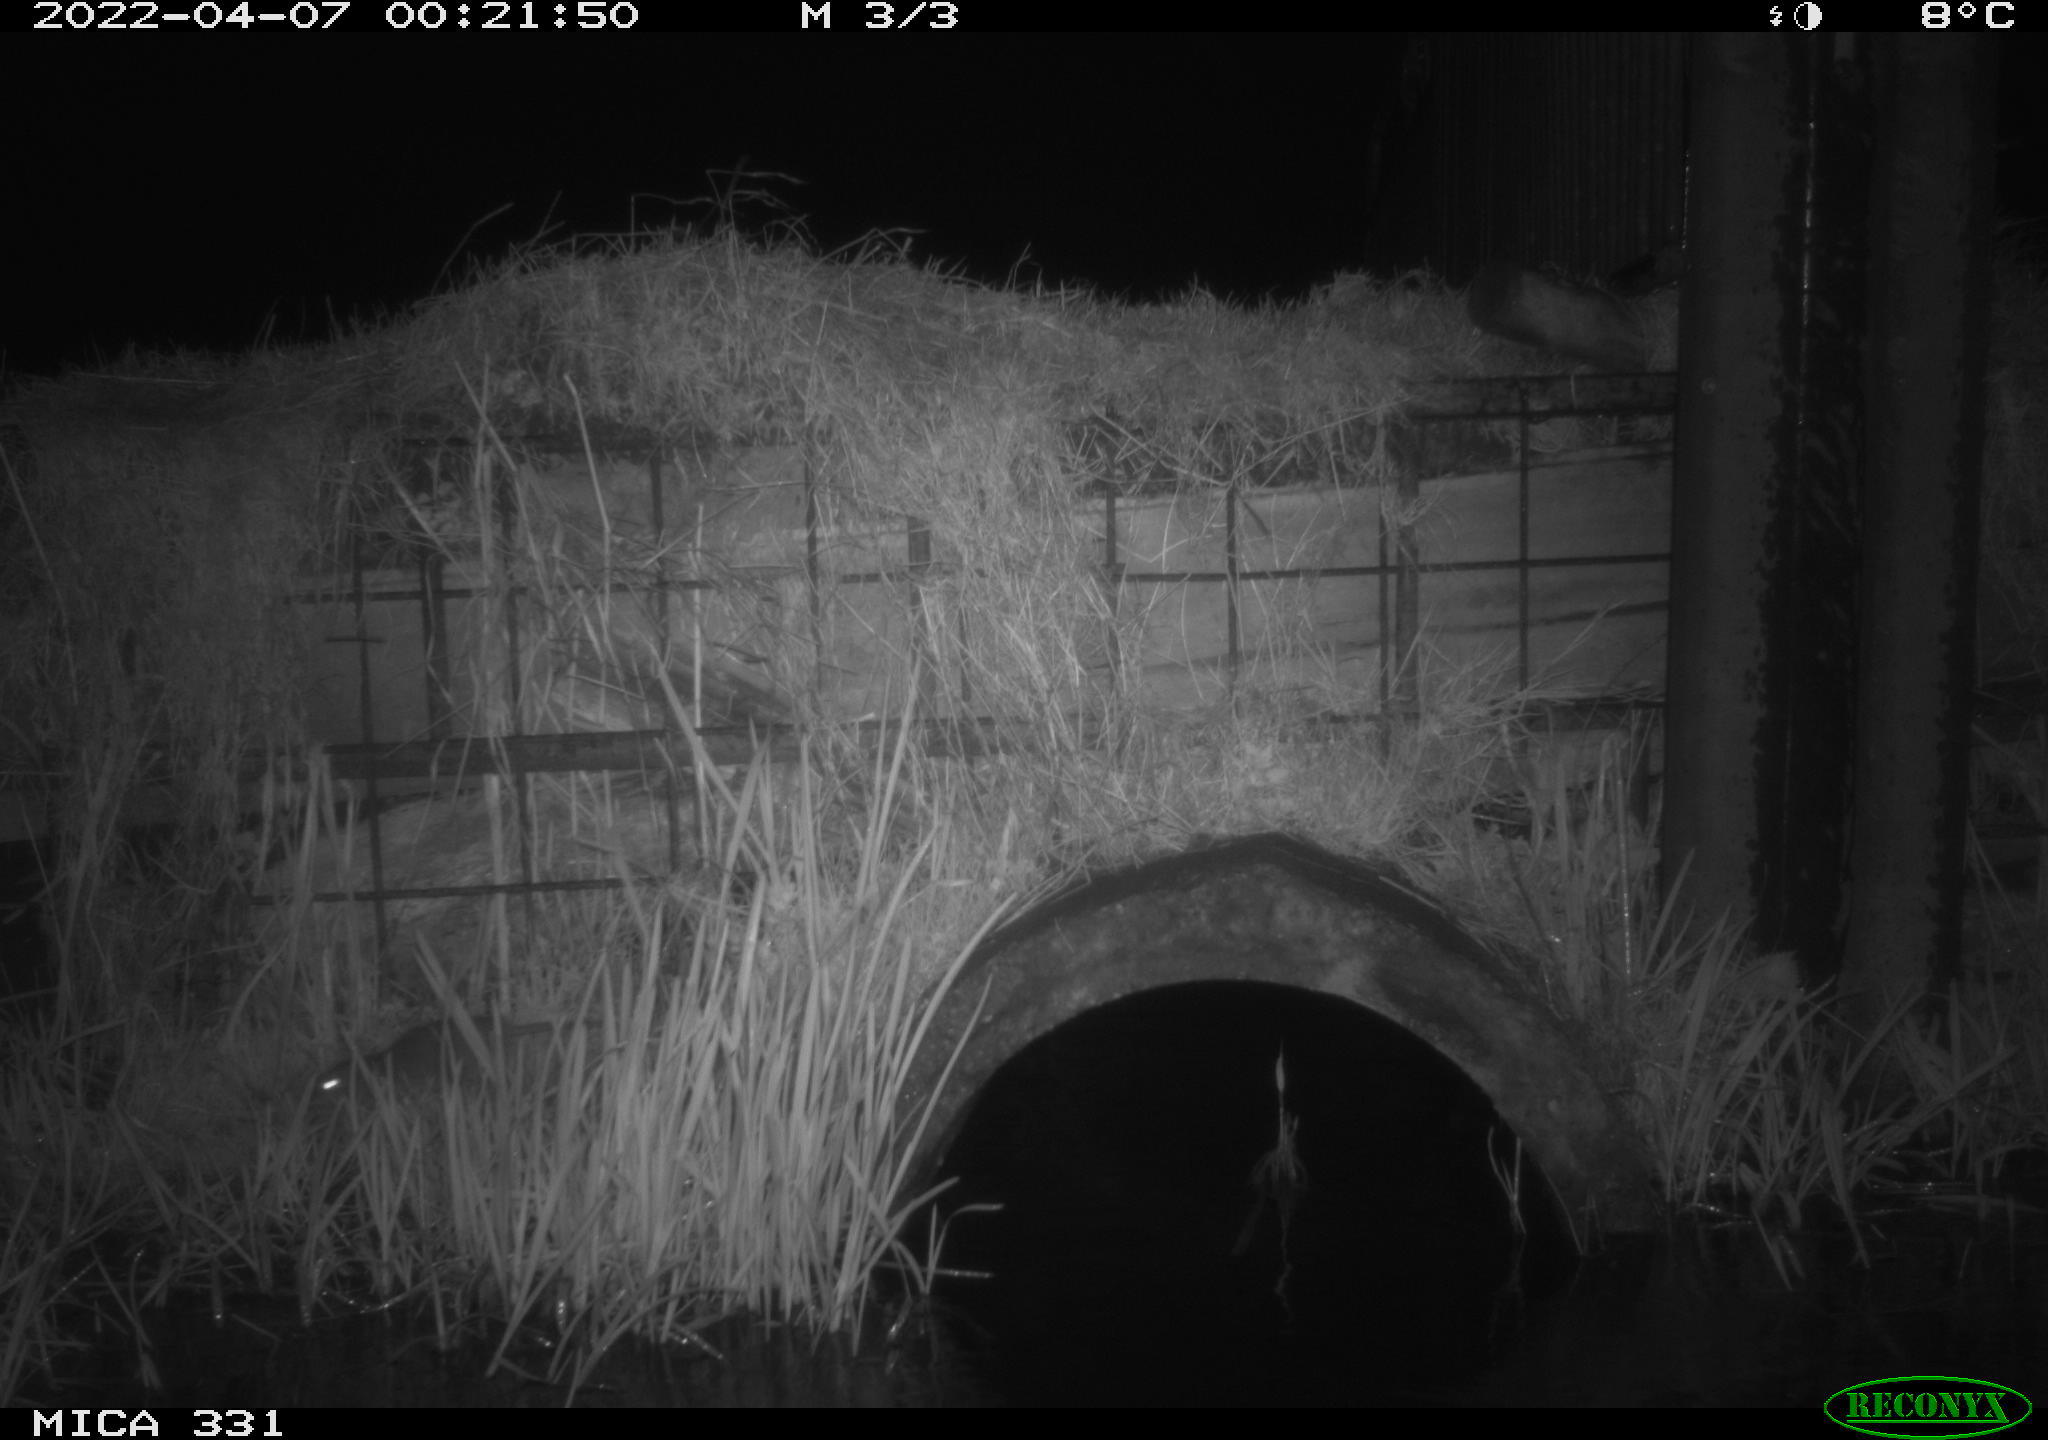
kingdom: Animalia
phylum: Chordata
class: Mammalia
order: Rodentia
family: Muridae
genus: Rattus
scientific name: Rattus norvegicus
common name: Brown rat
